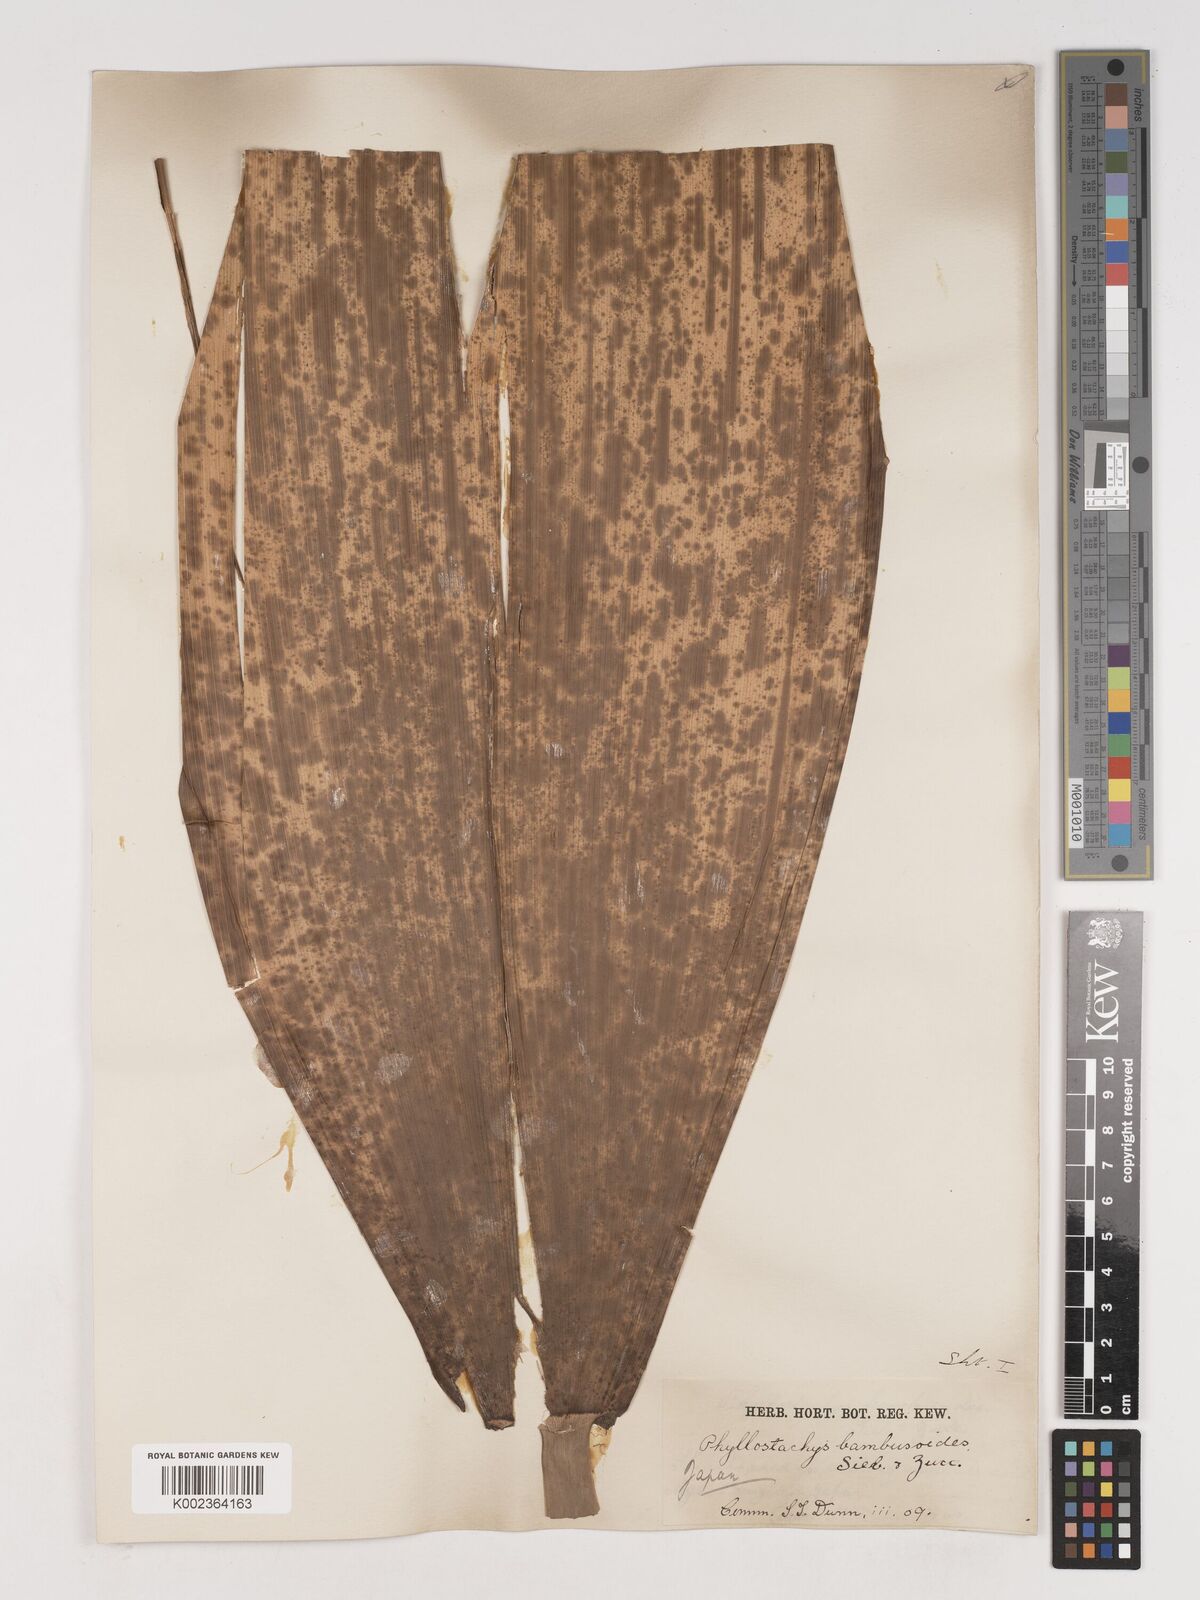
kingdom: Plantae
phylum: Tracheophyta
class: Liliopsida
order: Poales
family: Poaceae
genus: Phyllostachys
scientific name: Phyllostachys reticulata
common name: Bamboo
